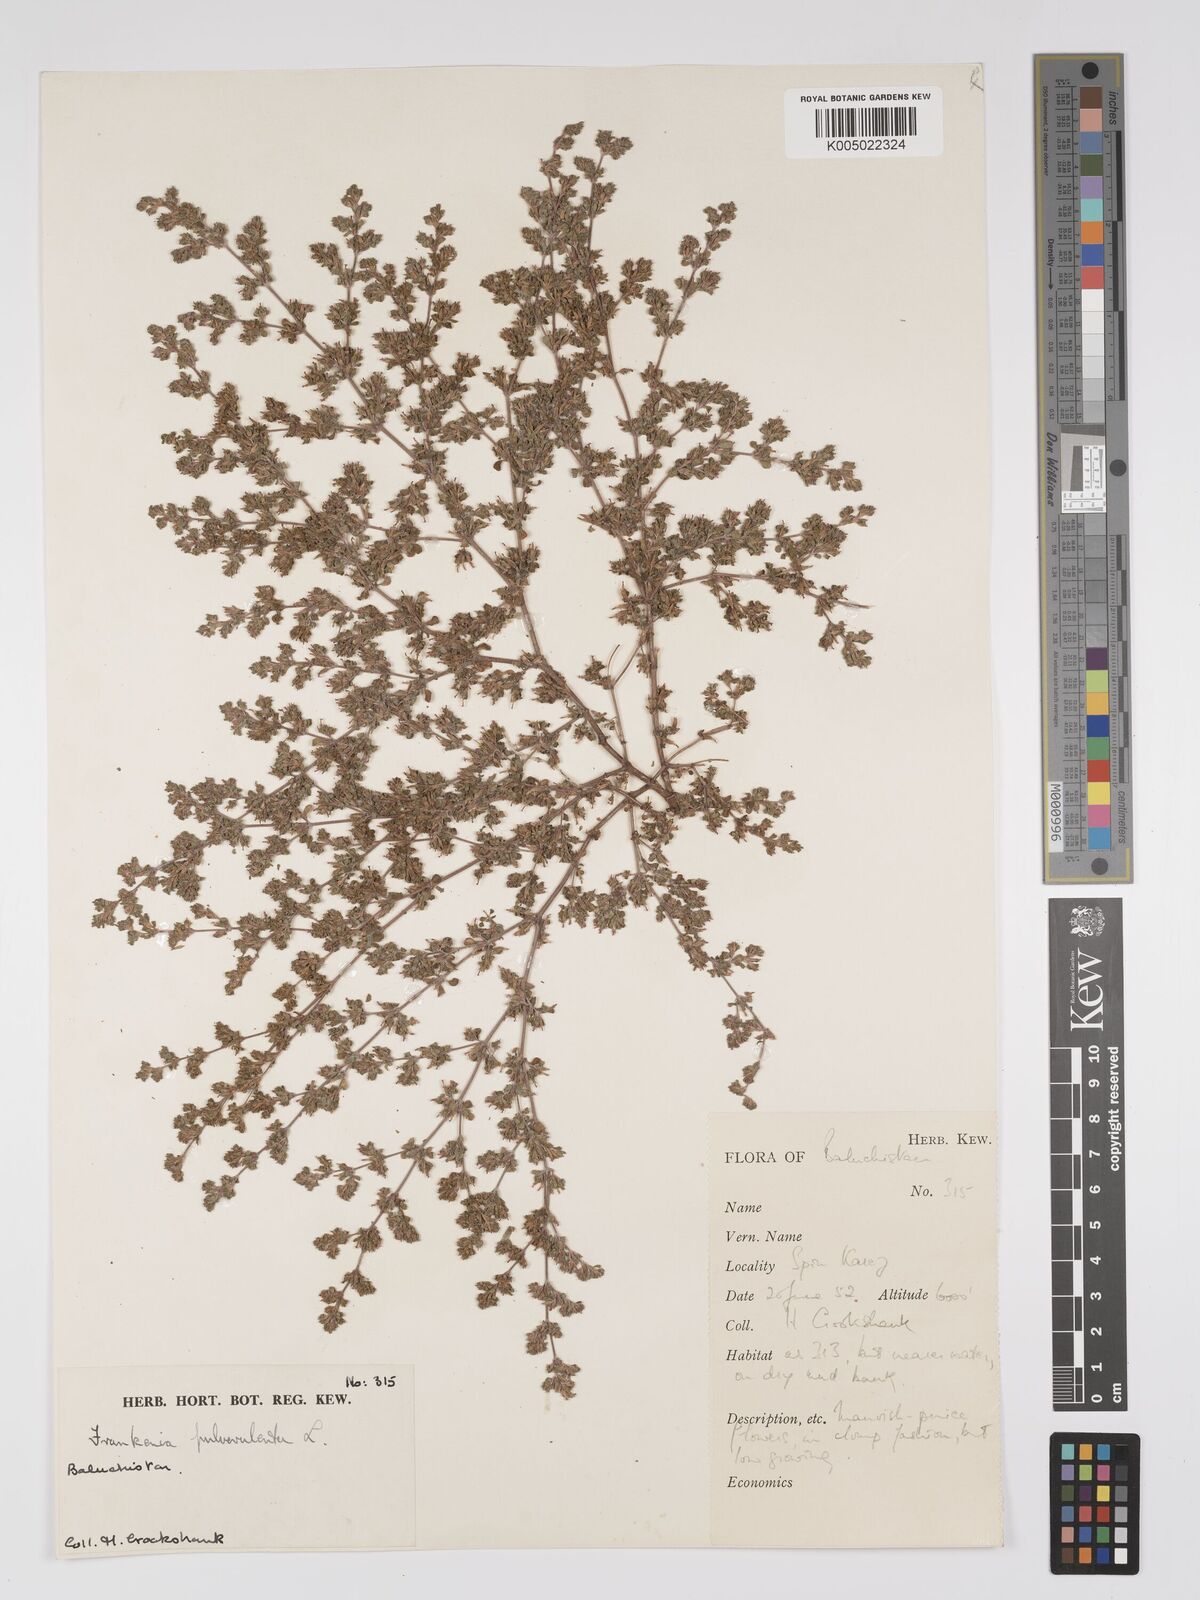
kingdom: Plantae
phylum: Tracheophyta
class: Magnoliopsida
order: Caryophyllales
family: Frankeniaceae
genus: Frankenia
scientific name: Frankenia pulverulenta
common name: European seaheath
